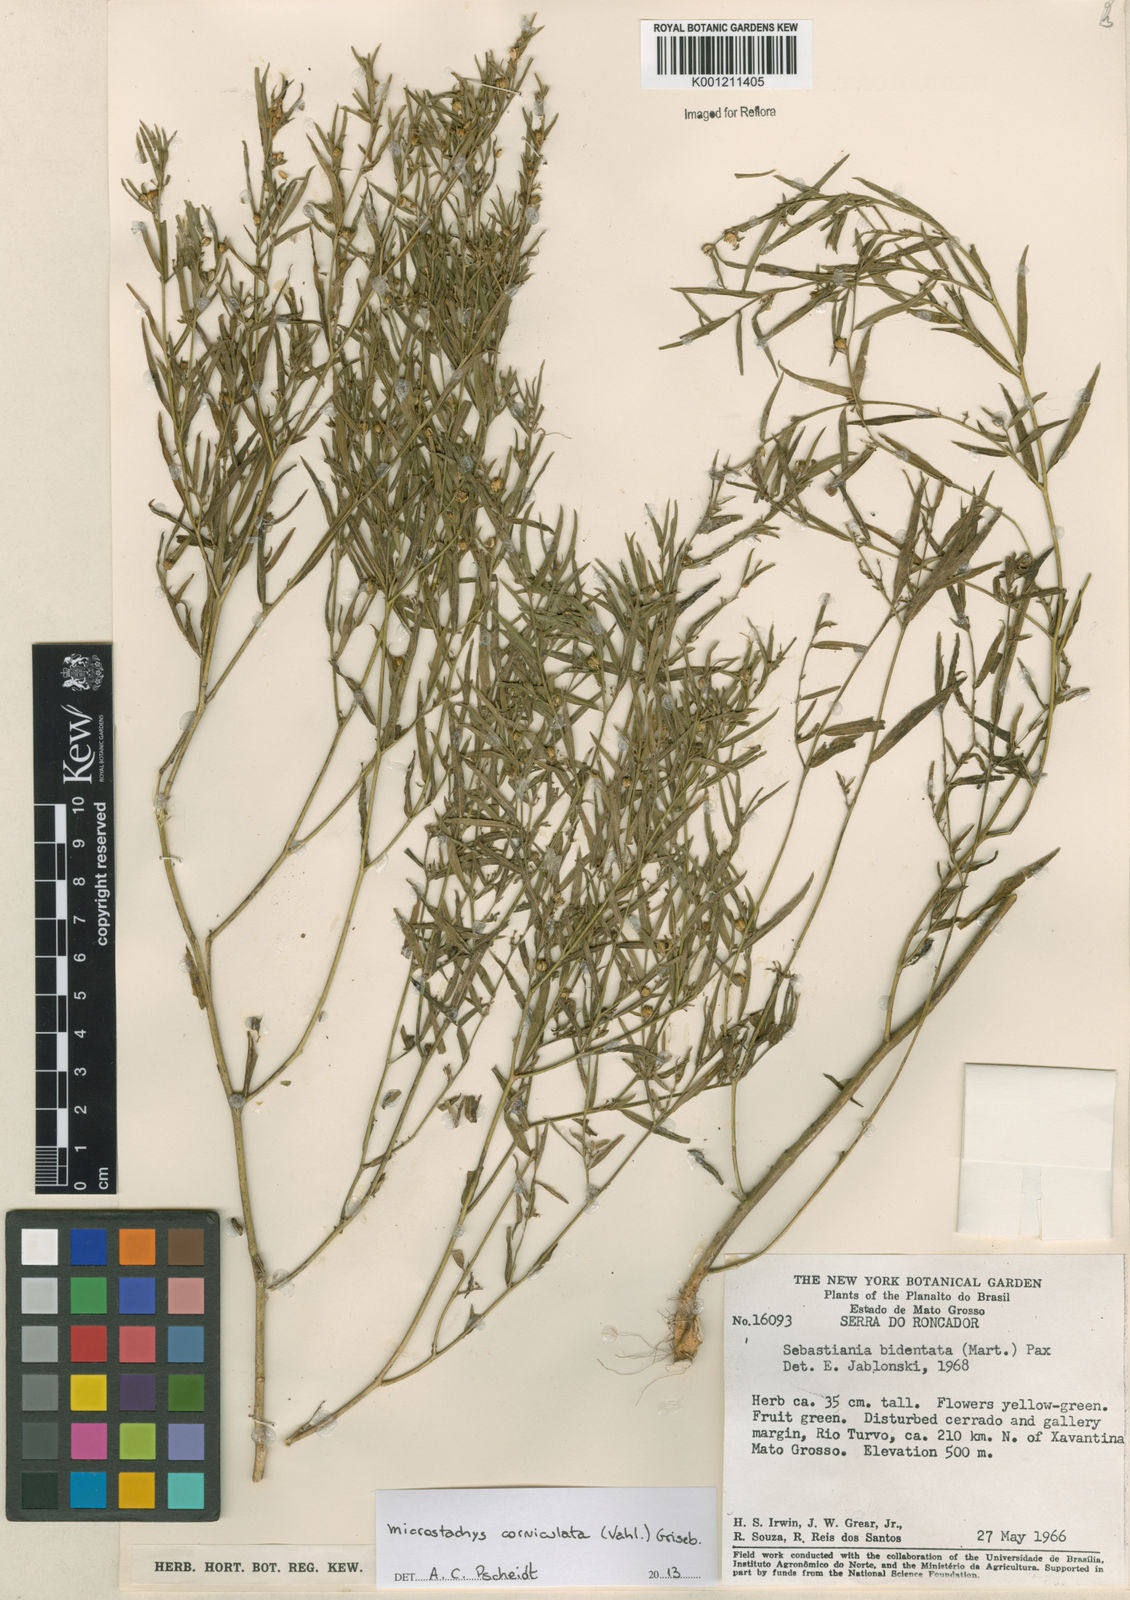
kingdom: Plantae
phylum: Tracheophyta
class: Magnoliopsida
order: Malpighiales
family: Euphorbiaceae
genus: Microstachys
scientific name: Microstachys corniculata
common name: Hato tejas
